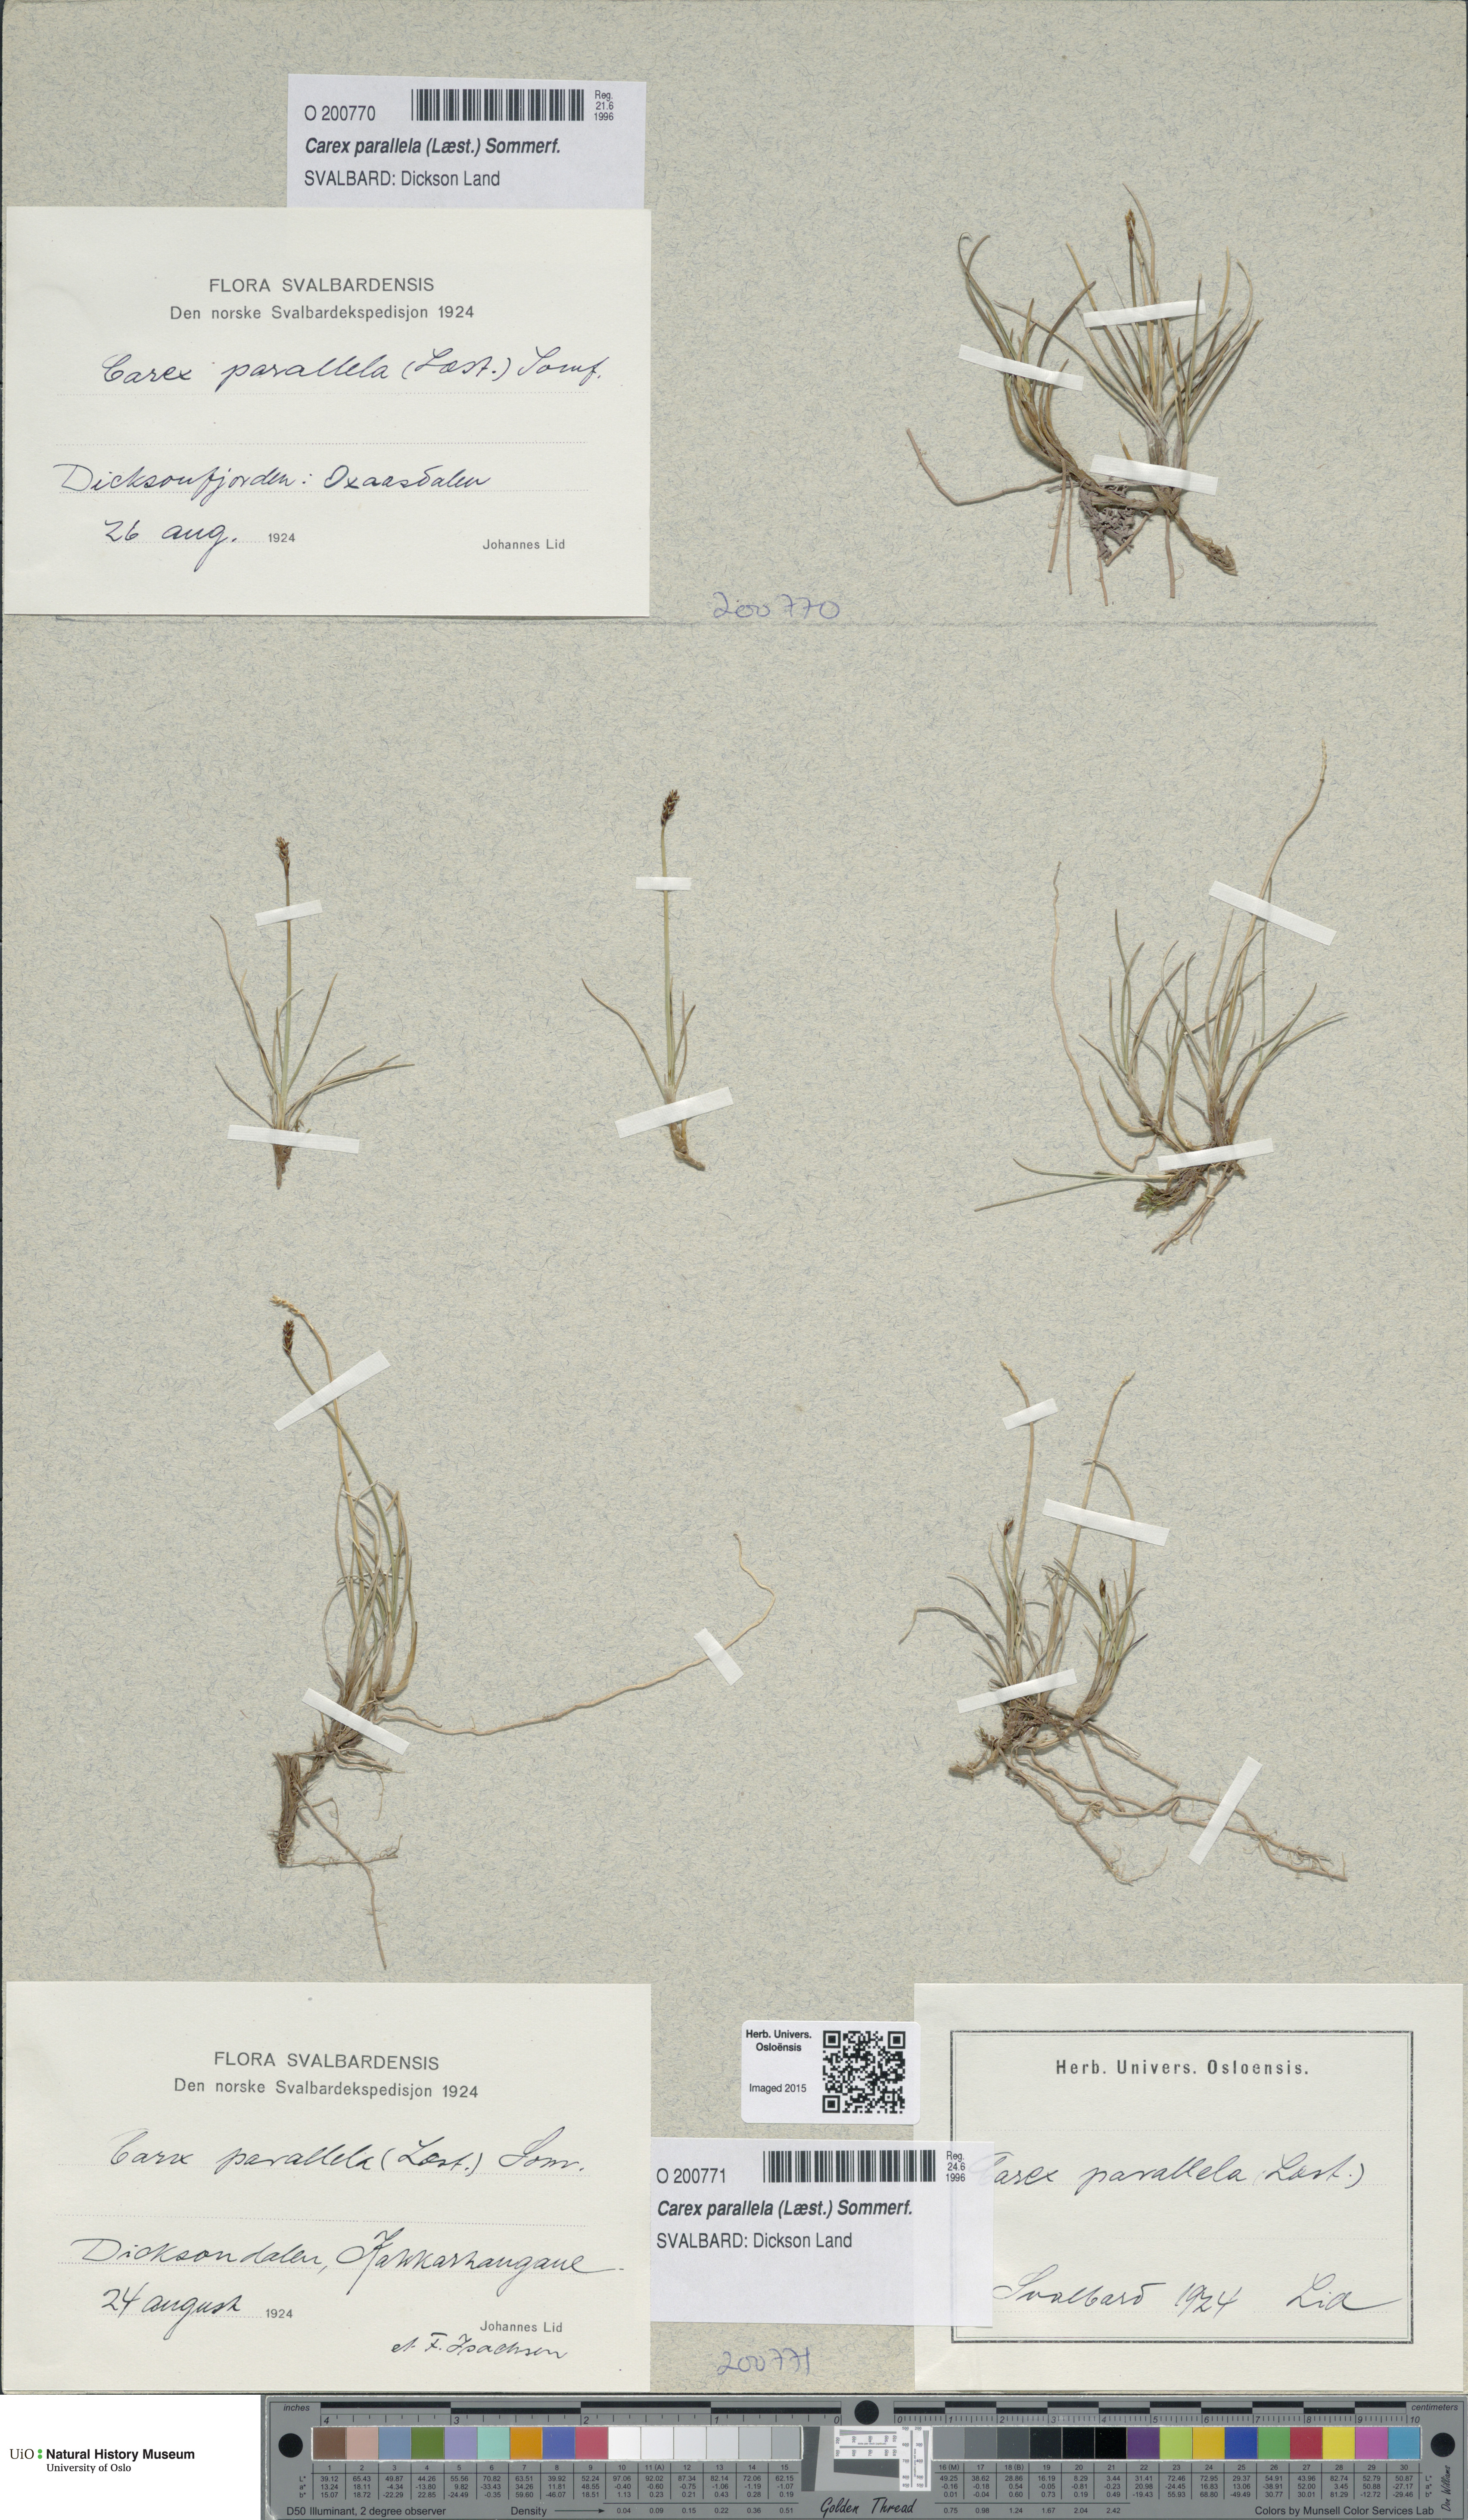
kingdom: Plantae
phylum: Tracheophyta
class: Liliopsida
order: Poales
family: Cyperaceae
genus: Carex
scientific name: Carex parallela
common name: Parallel sedge
